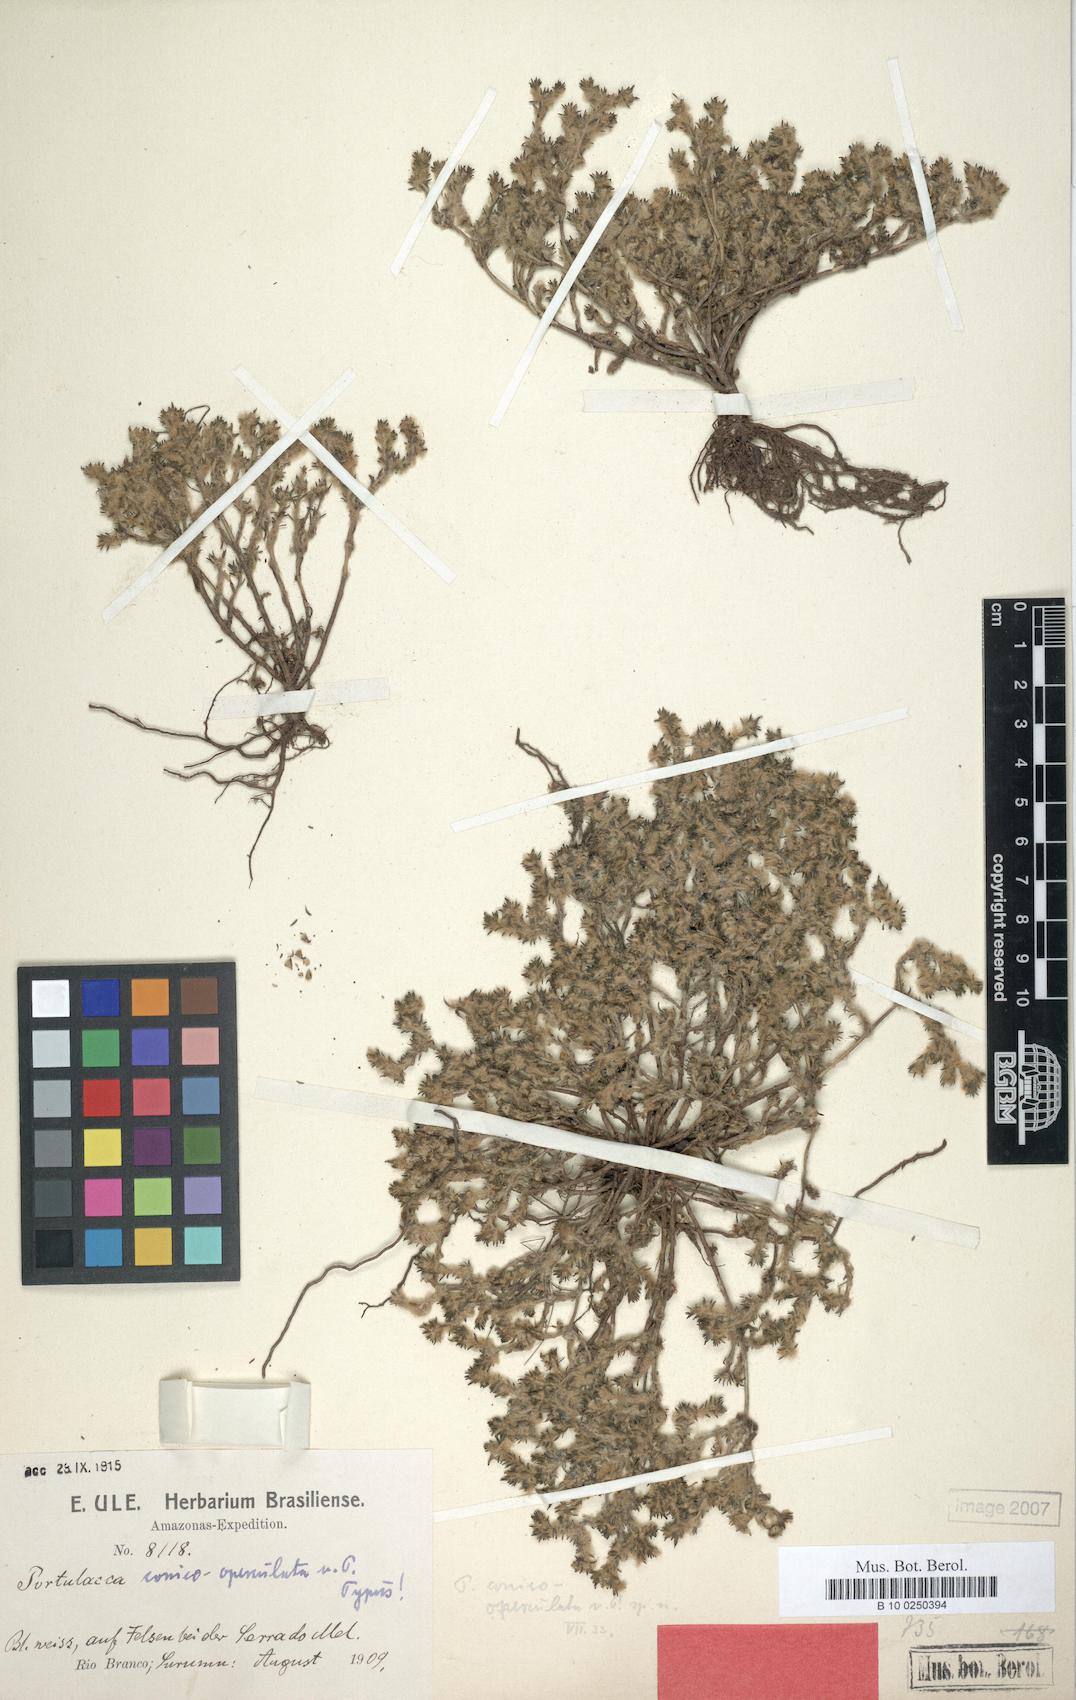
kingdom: Plantae
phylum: Tracheophyta
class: Magnoliopsida
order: Caryophyllales
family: Portulacaceae
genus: Portulaca
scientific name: Portulaca sedifolia
